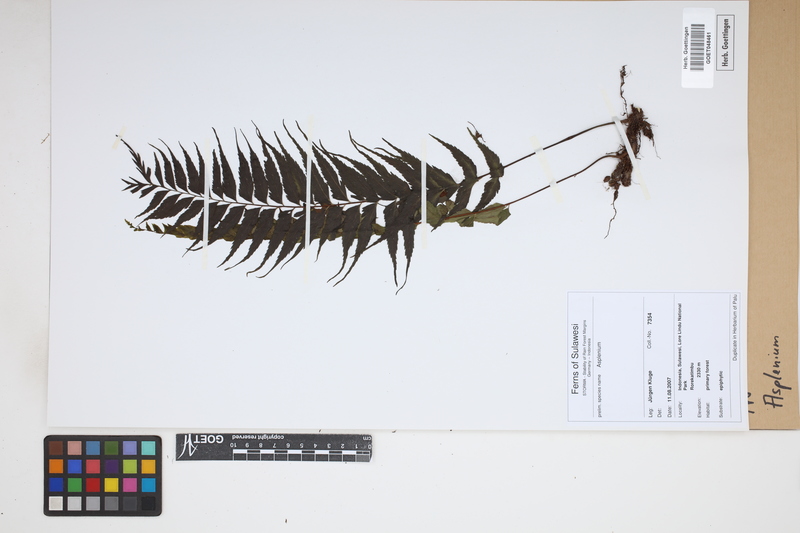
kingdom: Plantae
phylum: Tracheophyta
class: Polypodiopsida
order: Polypodiales
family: Aspleniaceae
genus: Asplenium
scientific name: Asplenium
